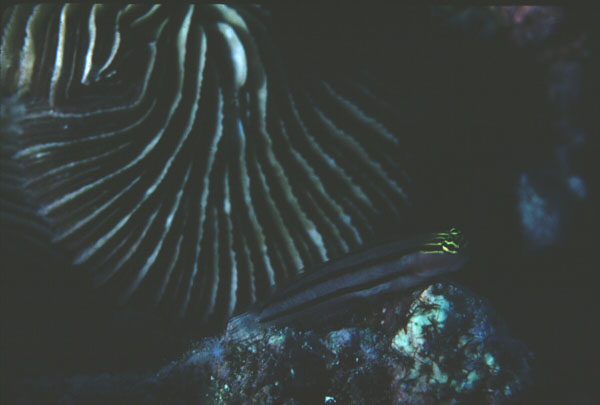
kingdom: Animalia
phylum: Chordata
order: Perciformes
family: Blenniidae
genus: Ecsenius
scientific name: Ecsenius dilemma
